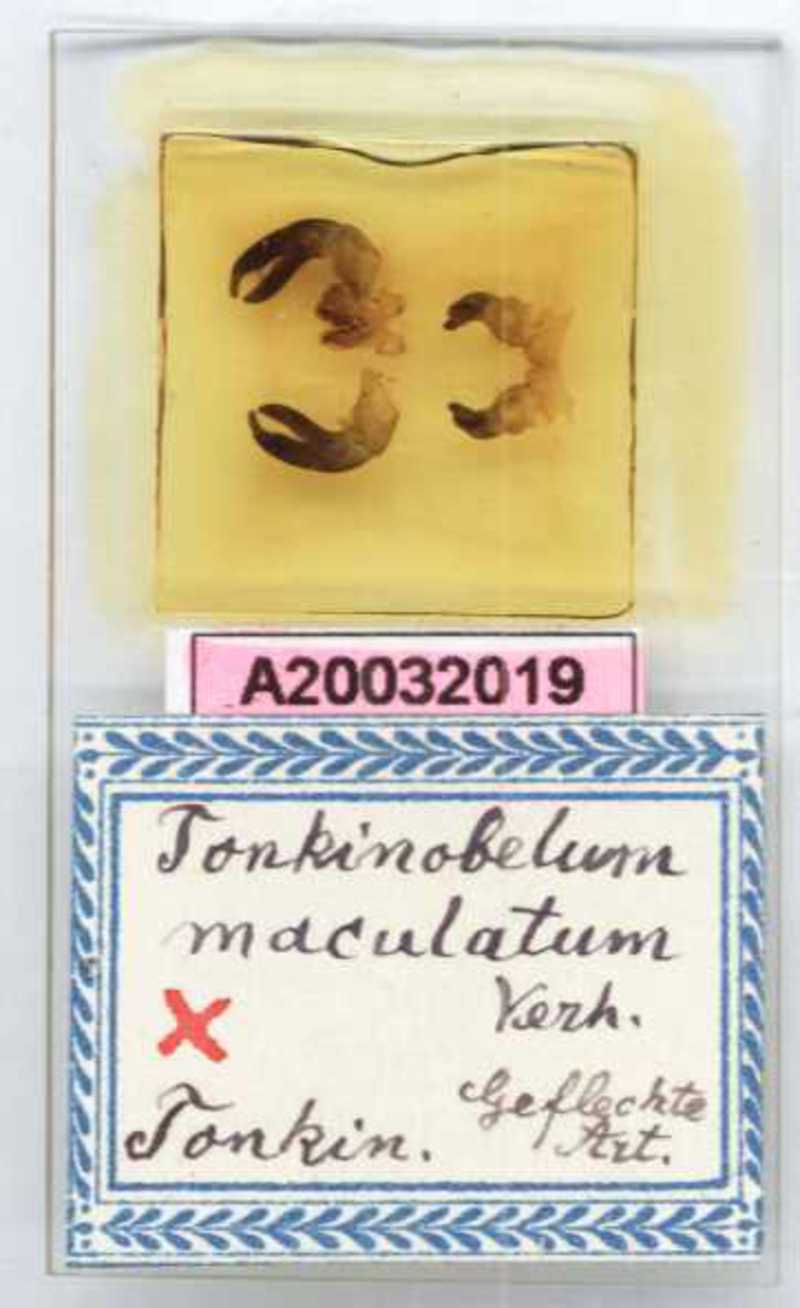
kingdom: Animalia
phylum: Arthropoda
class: Diplopoda
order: Sphaerotheriida
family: Zephroniidae
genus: Sphaeropoeus
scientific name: Sphaeropoeus maculatus
